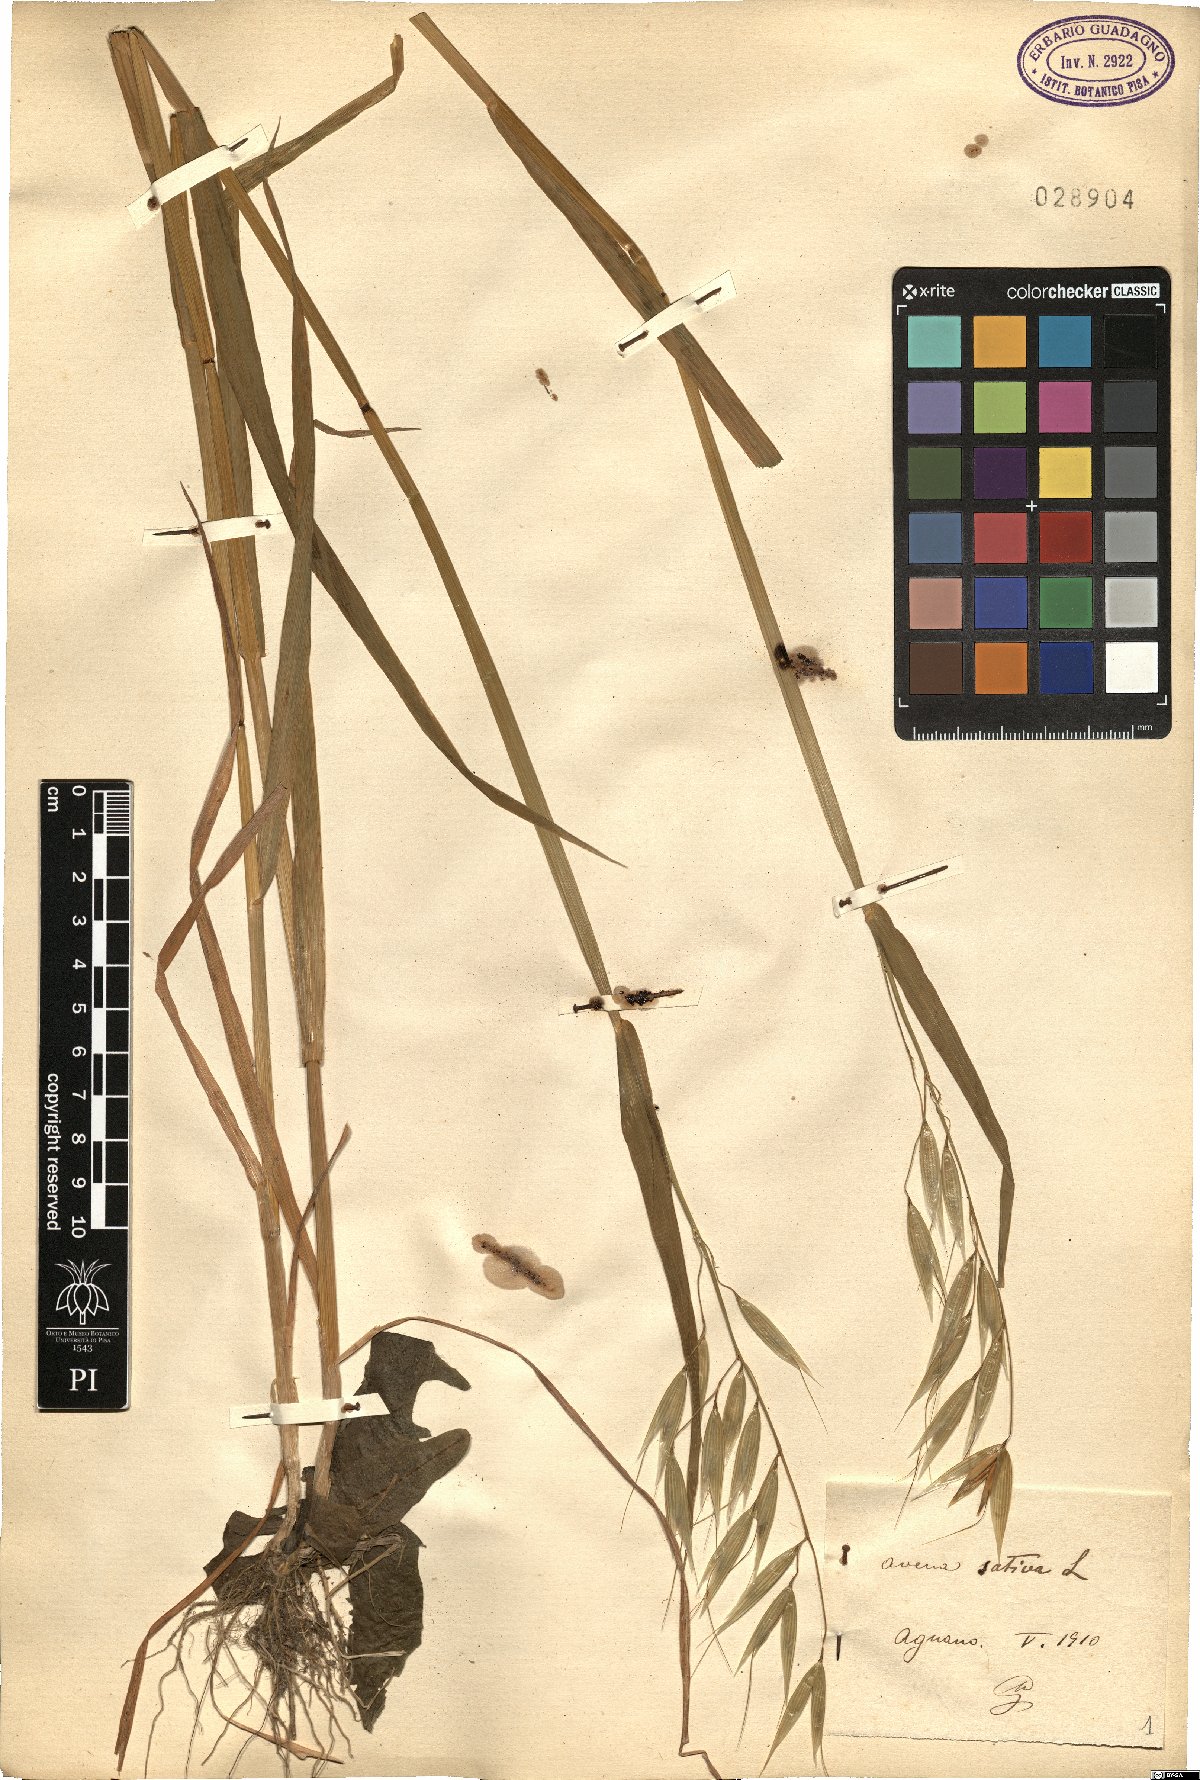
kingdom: Plantae
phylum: Tracheophyta
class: Liliopsida
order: Poales
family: Poaceae
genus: Avena
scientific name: Avena sativa
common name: Oat
